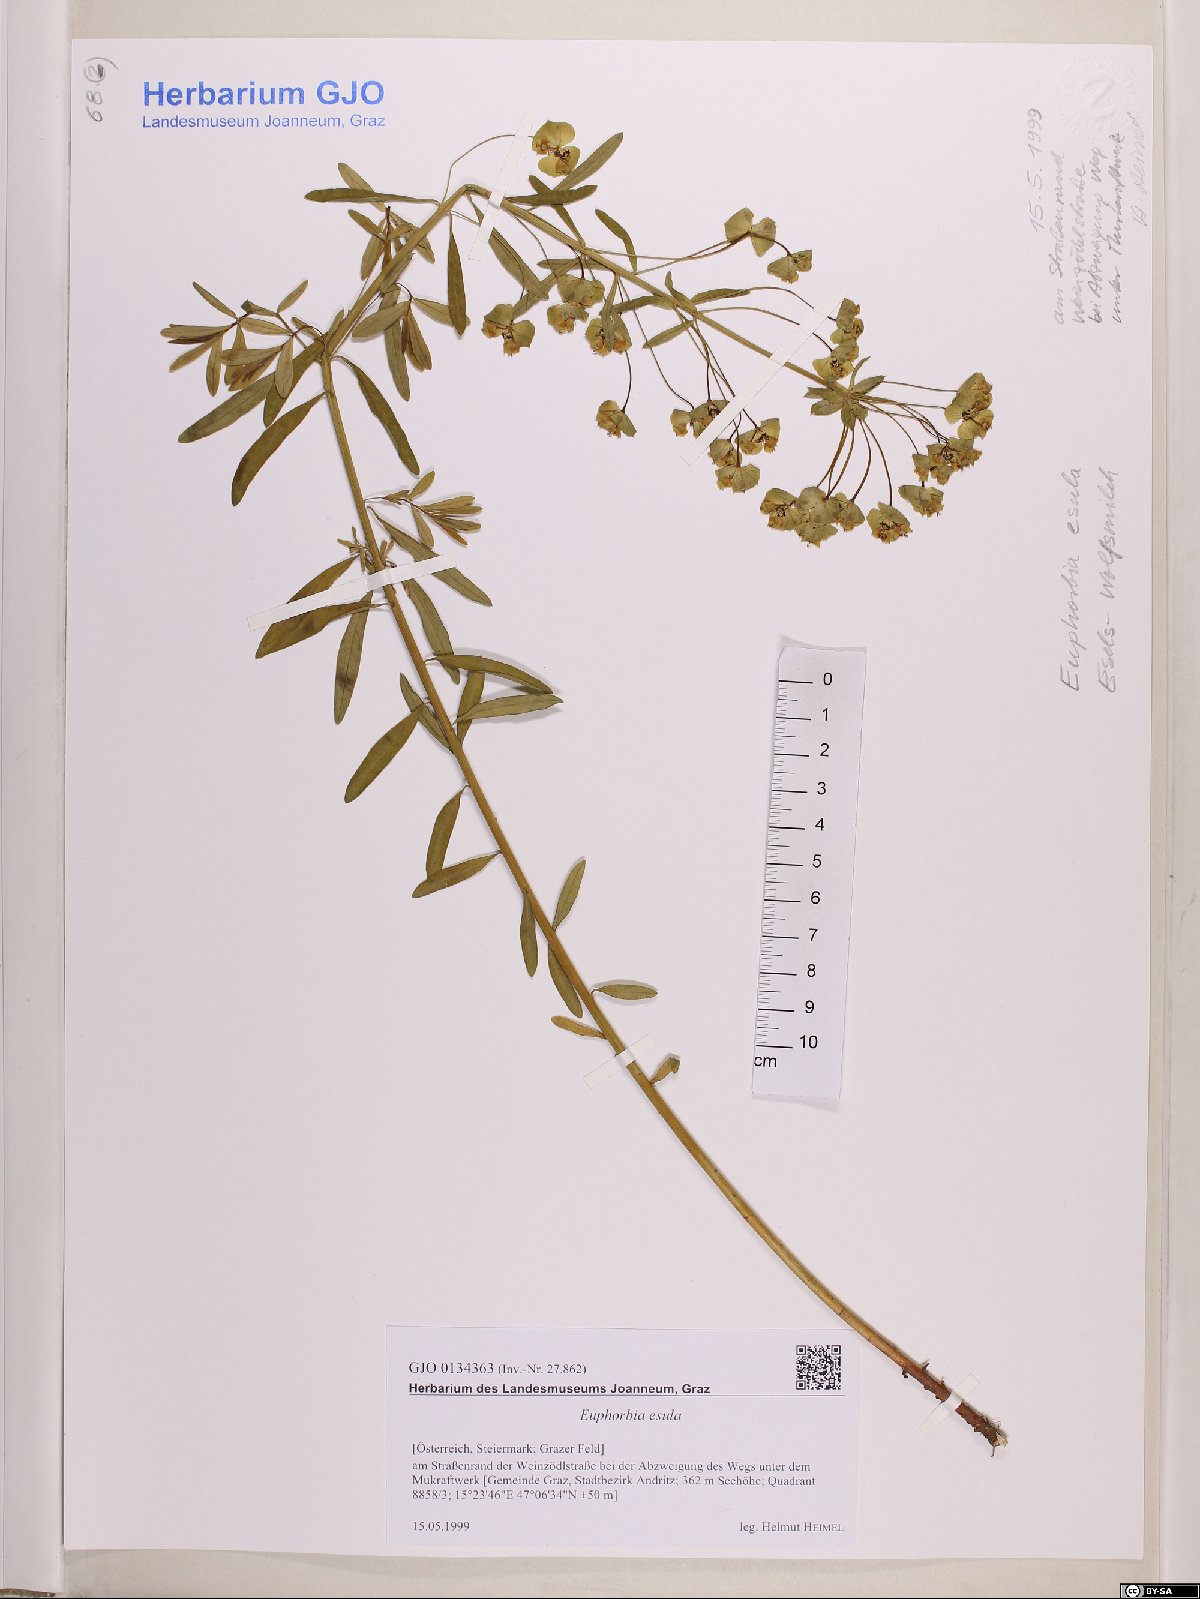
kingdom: Plantae
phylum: Tracheophyta
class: Magnoliopsida
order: Malpighiales
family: Euphorbiaceae
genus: Euphorbia
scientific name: Euphorbia esula
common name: Leafy spurge
